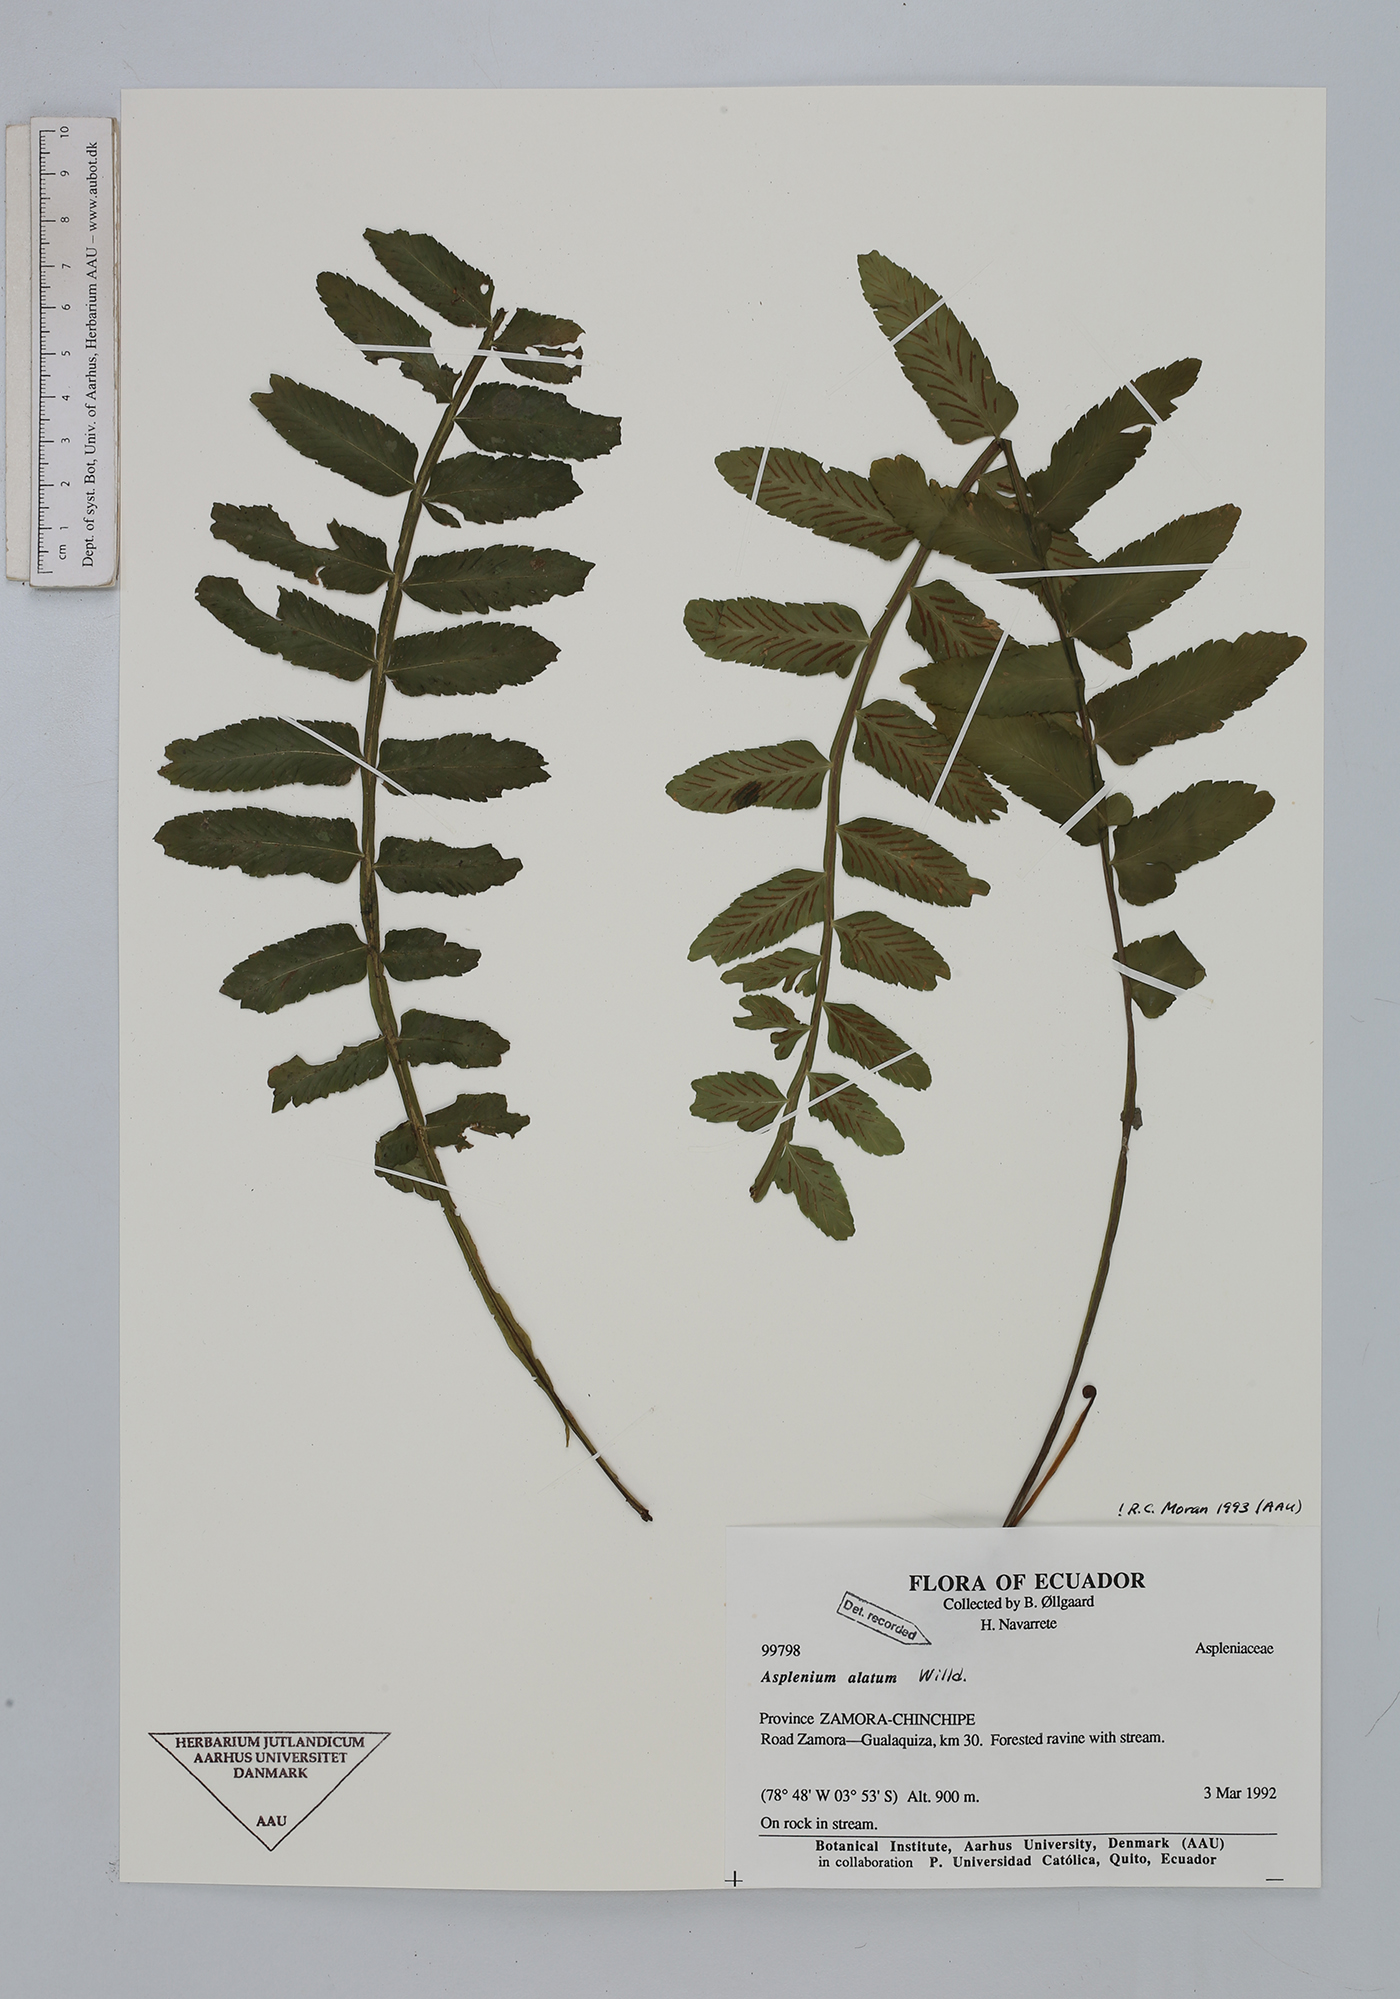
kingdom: Plantae
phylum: Tracheophyta
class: Polypodiopsida
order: Polypodiales
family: Aspleniaceae
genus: Asplenium
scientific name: Asplenium alatum
